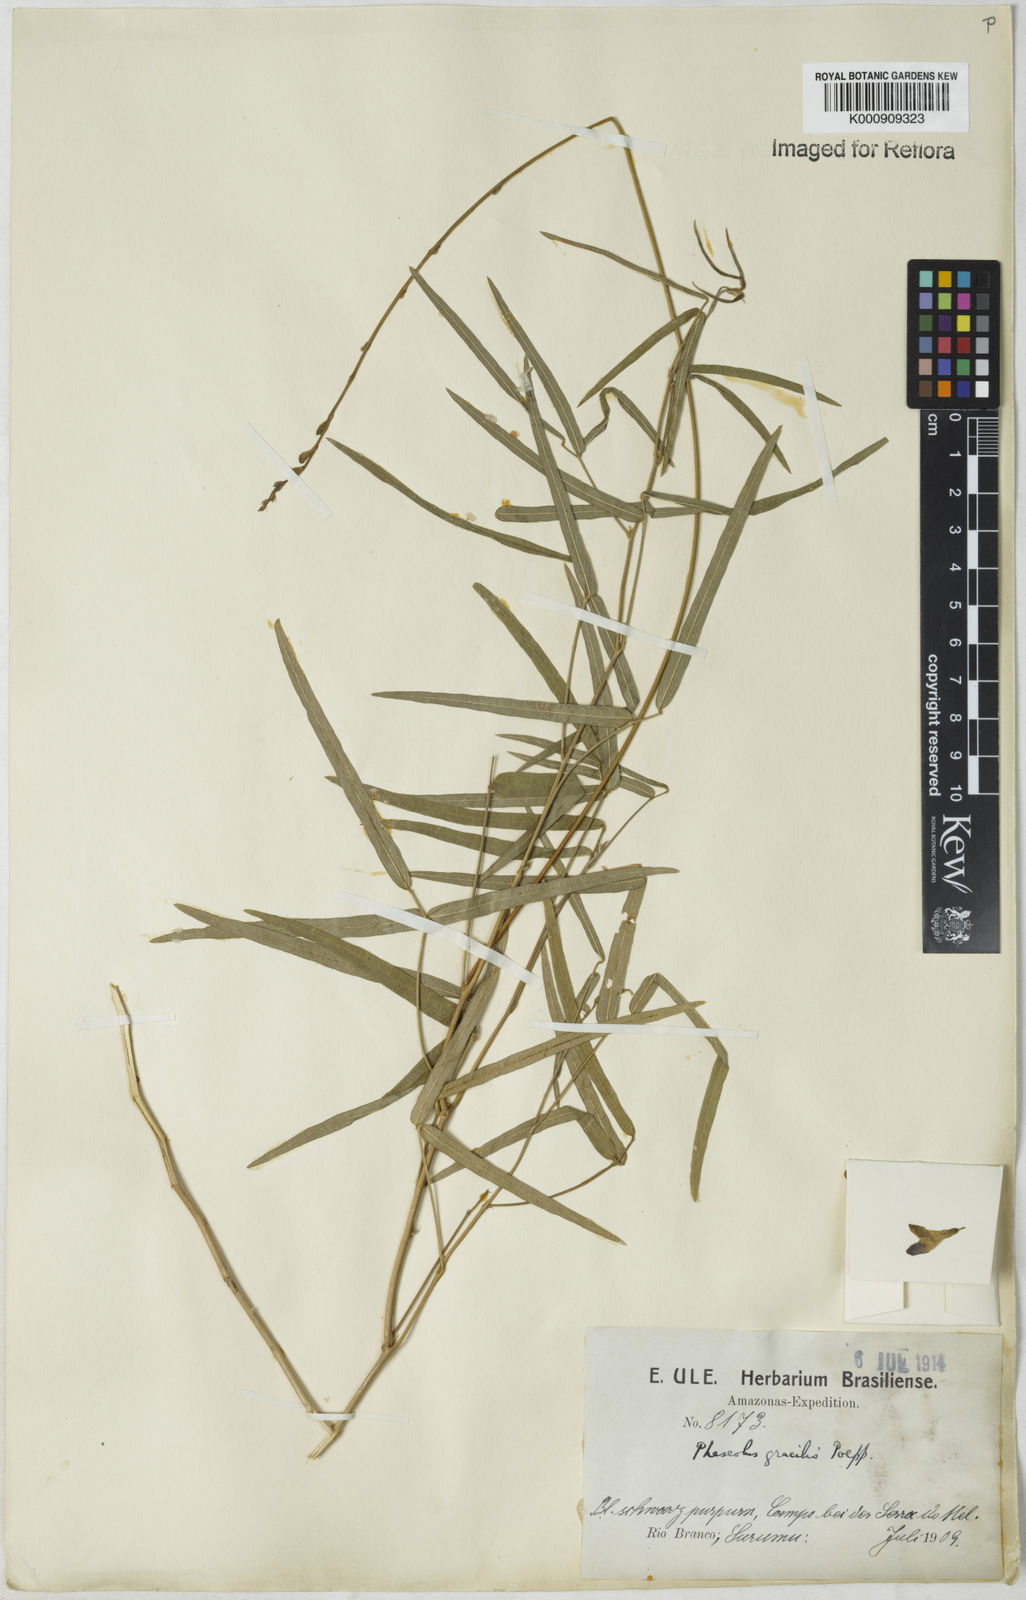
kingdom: Plantae
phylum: Tracheophyta
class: Magnoliopsida
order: Fabales
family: Fabaceae
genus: Macroptilium
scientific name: Macroptilium gracile
